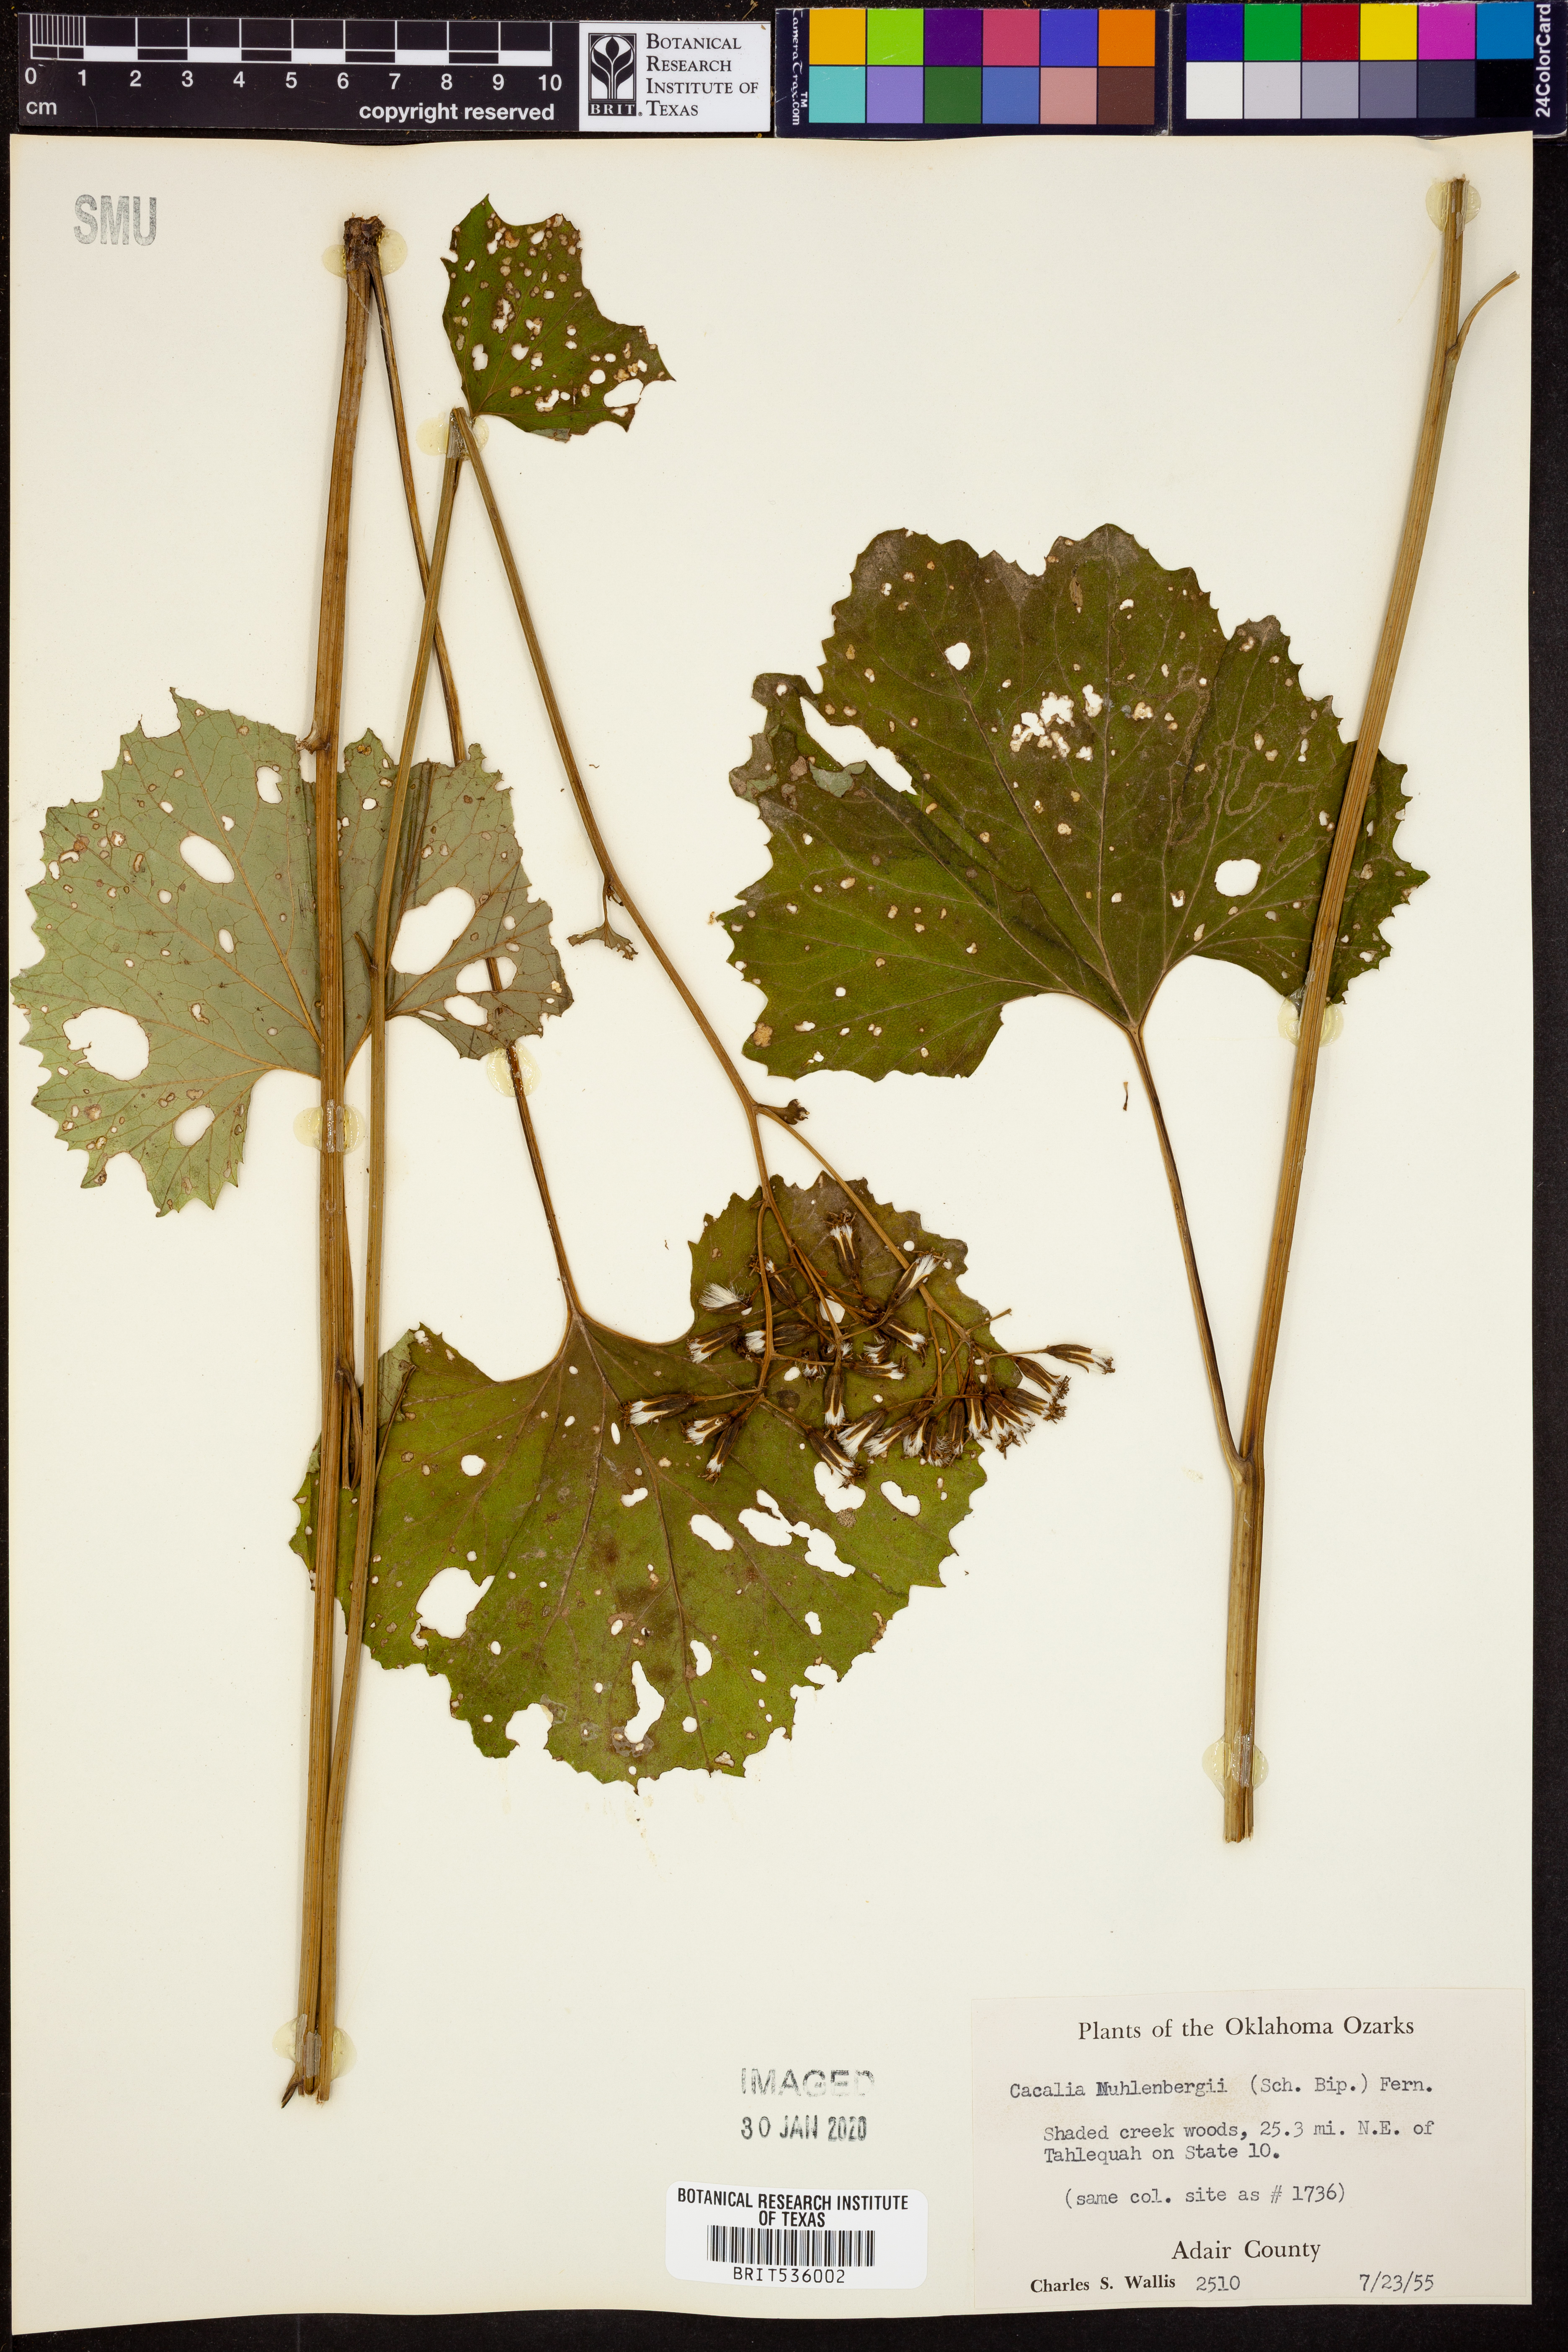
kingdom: Plantae
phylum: Tracheophyta
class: Magnoliopsida
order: Asterales
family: Asteraceae
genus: Arnoglossum
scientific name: Arnoglossum reniforme
